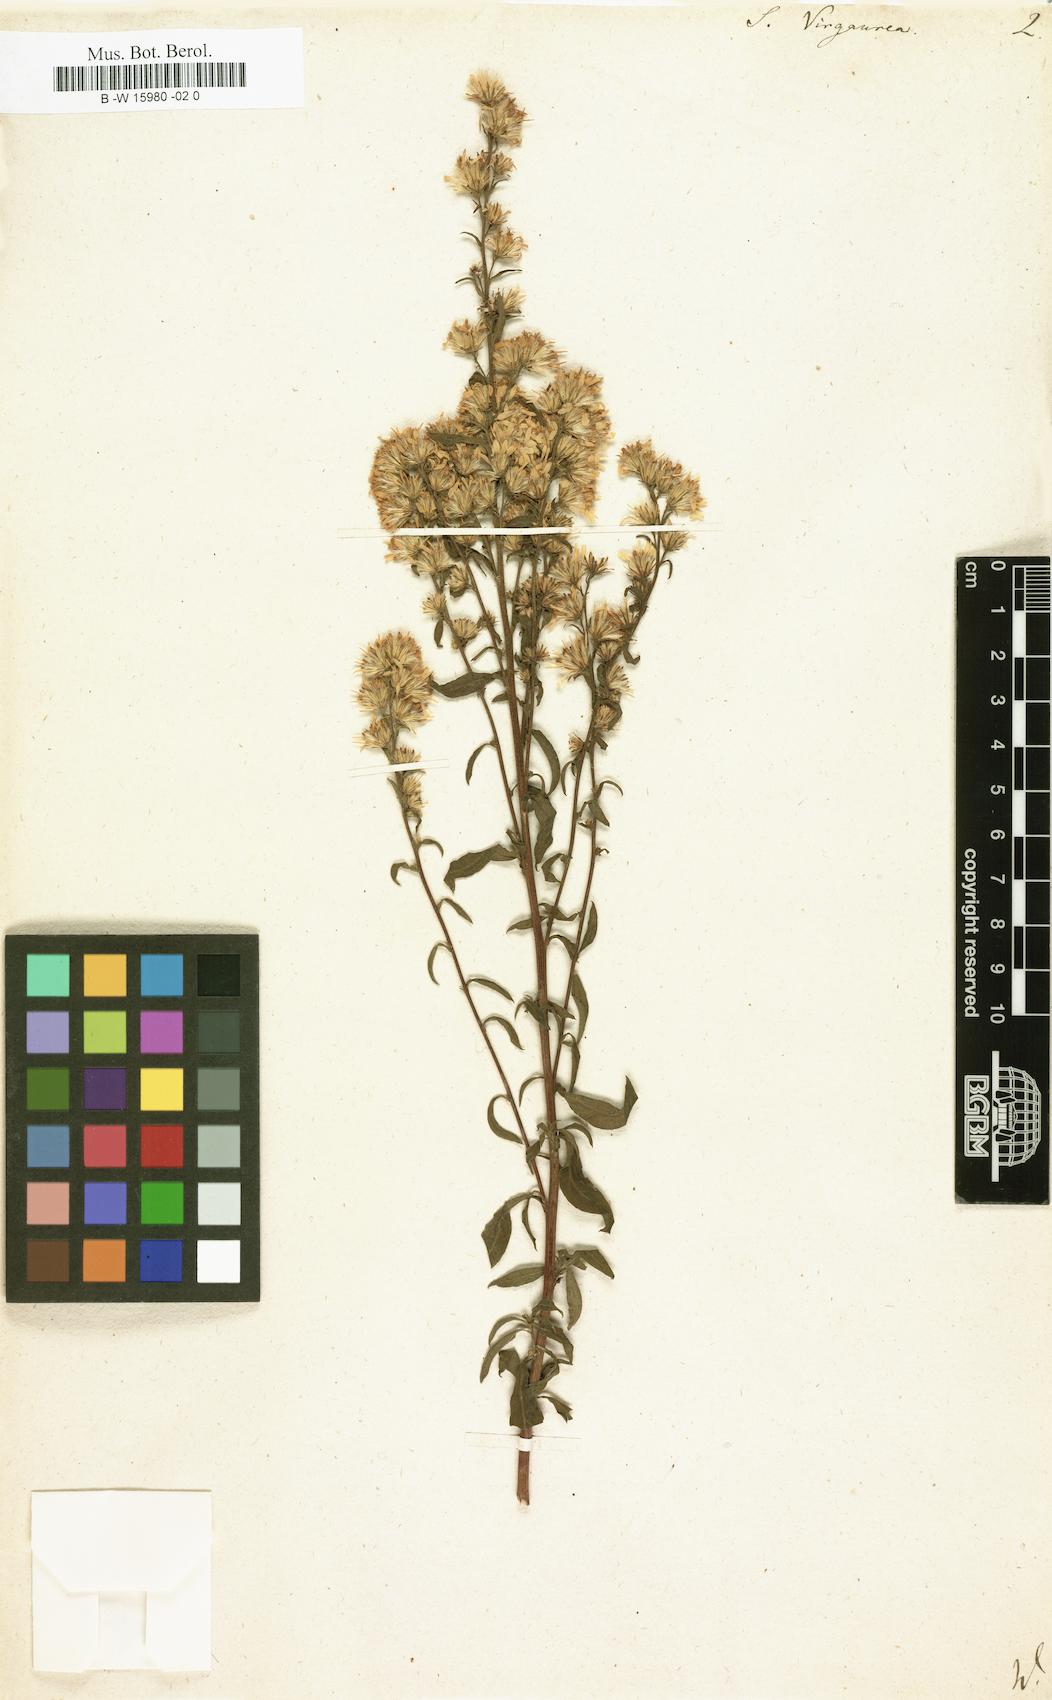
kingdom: Plantae
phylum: Tracheophyta
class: Magnoliopsida
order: Asterales
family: Asteraceae
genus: Solidago
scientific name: Solidago virgaurea
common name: Goldenrod
